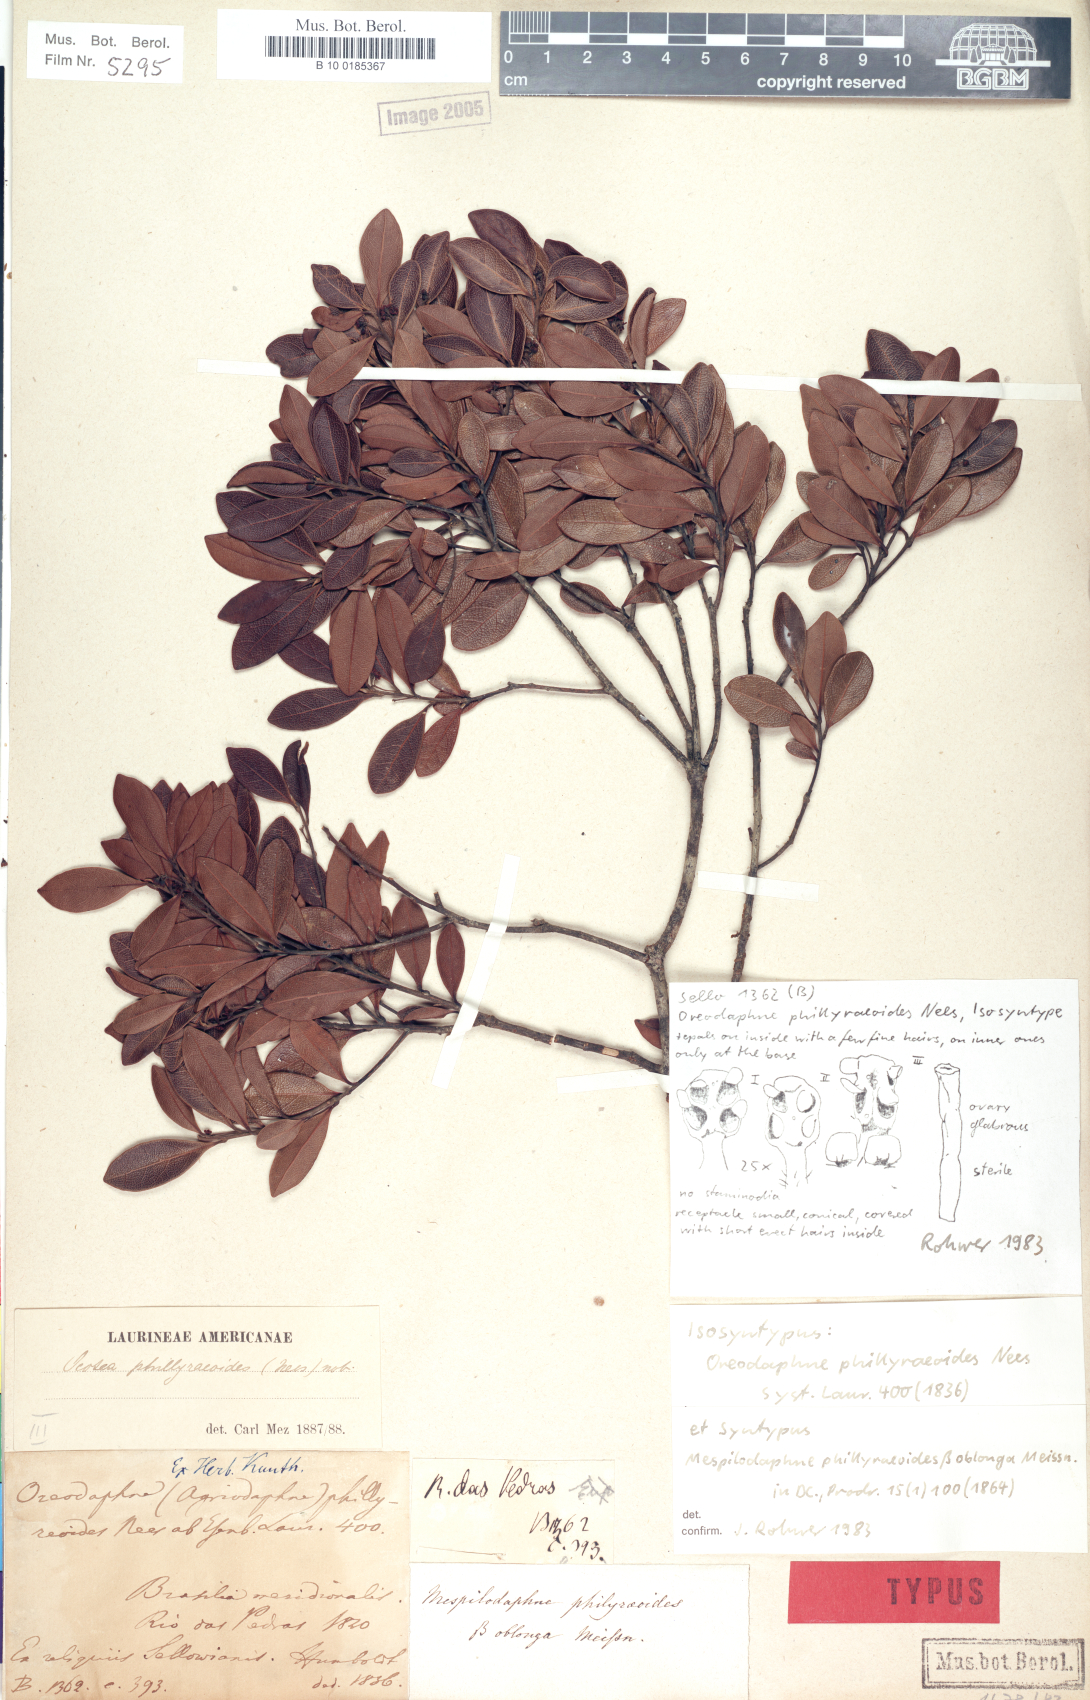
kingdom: Plantae
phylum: Tracheophyta
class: Magnoliopsida
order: Laurales
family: Lauraceae
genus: Mespilodaphne
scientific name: Mespilodaphne tristis
